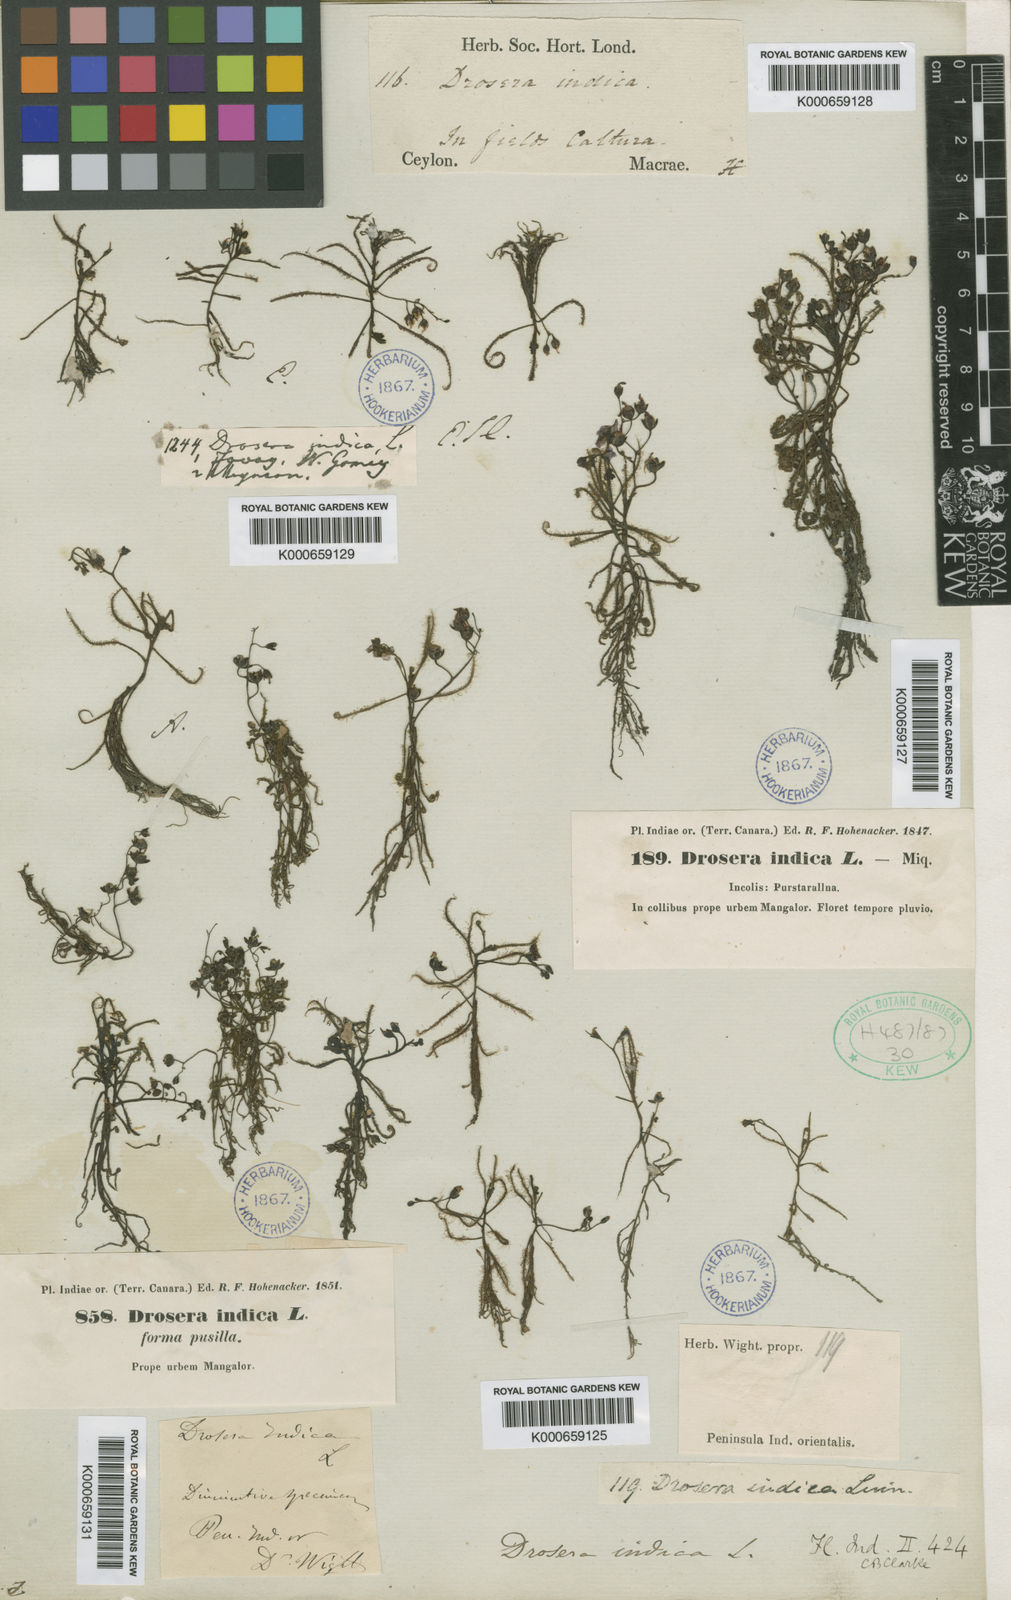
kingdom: Plantae
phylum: Tracheophyta
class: Magnoliopsida
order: Caryophyllales
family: Droseraceae
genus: Drosera
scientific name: Drosera indica
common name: Indian sundew
